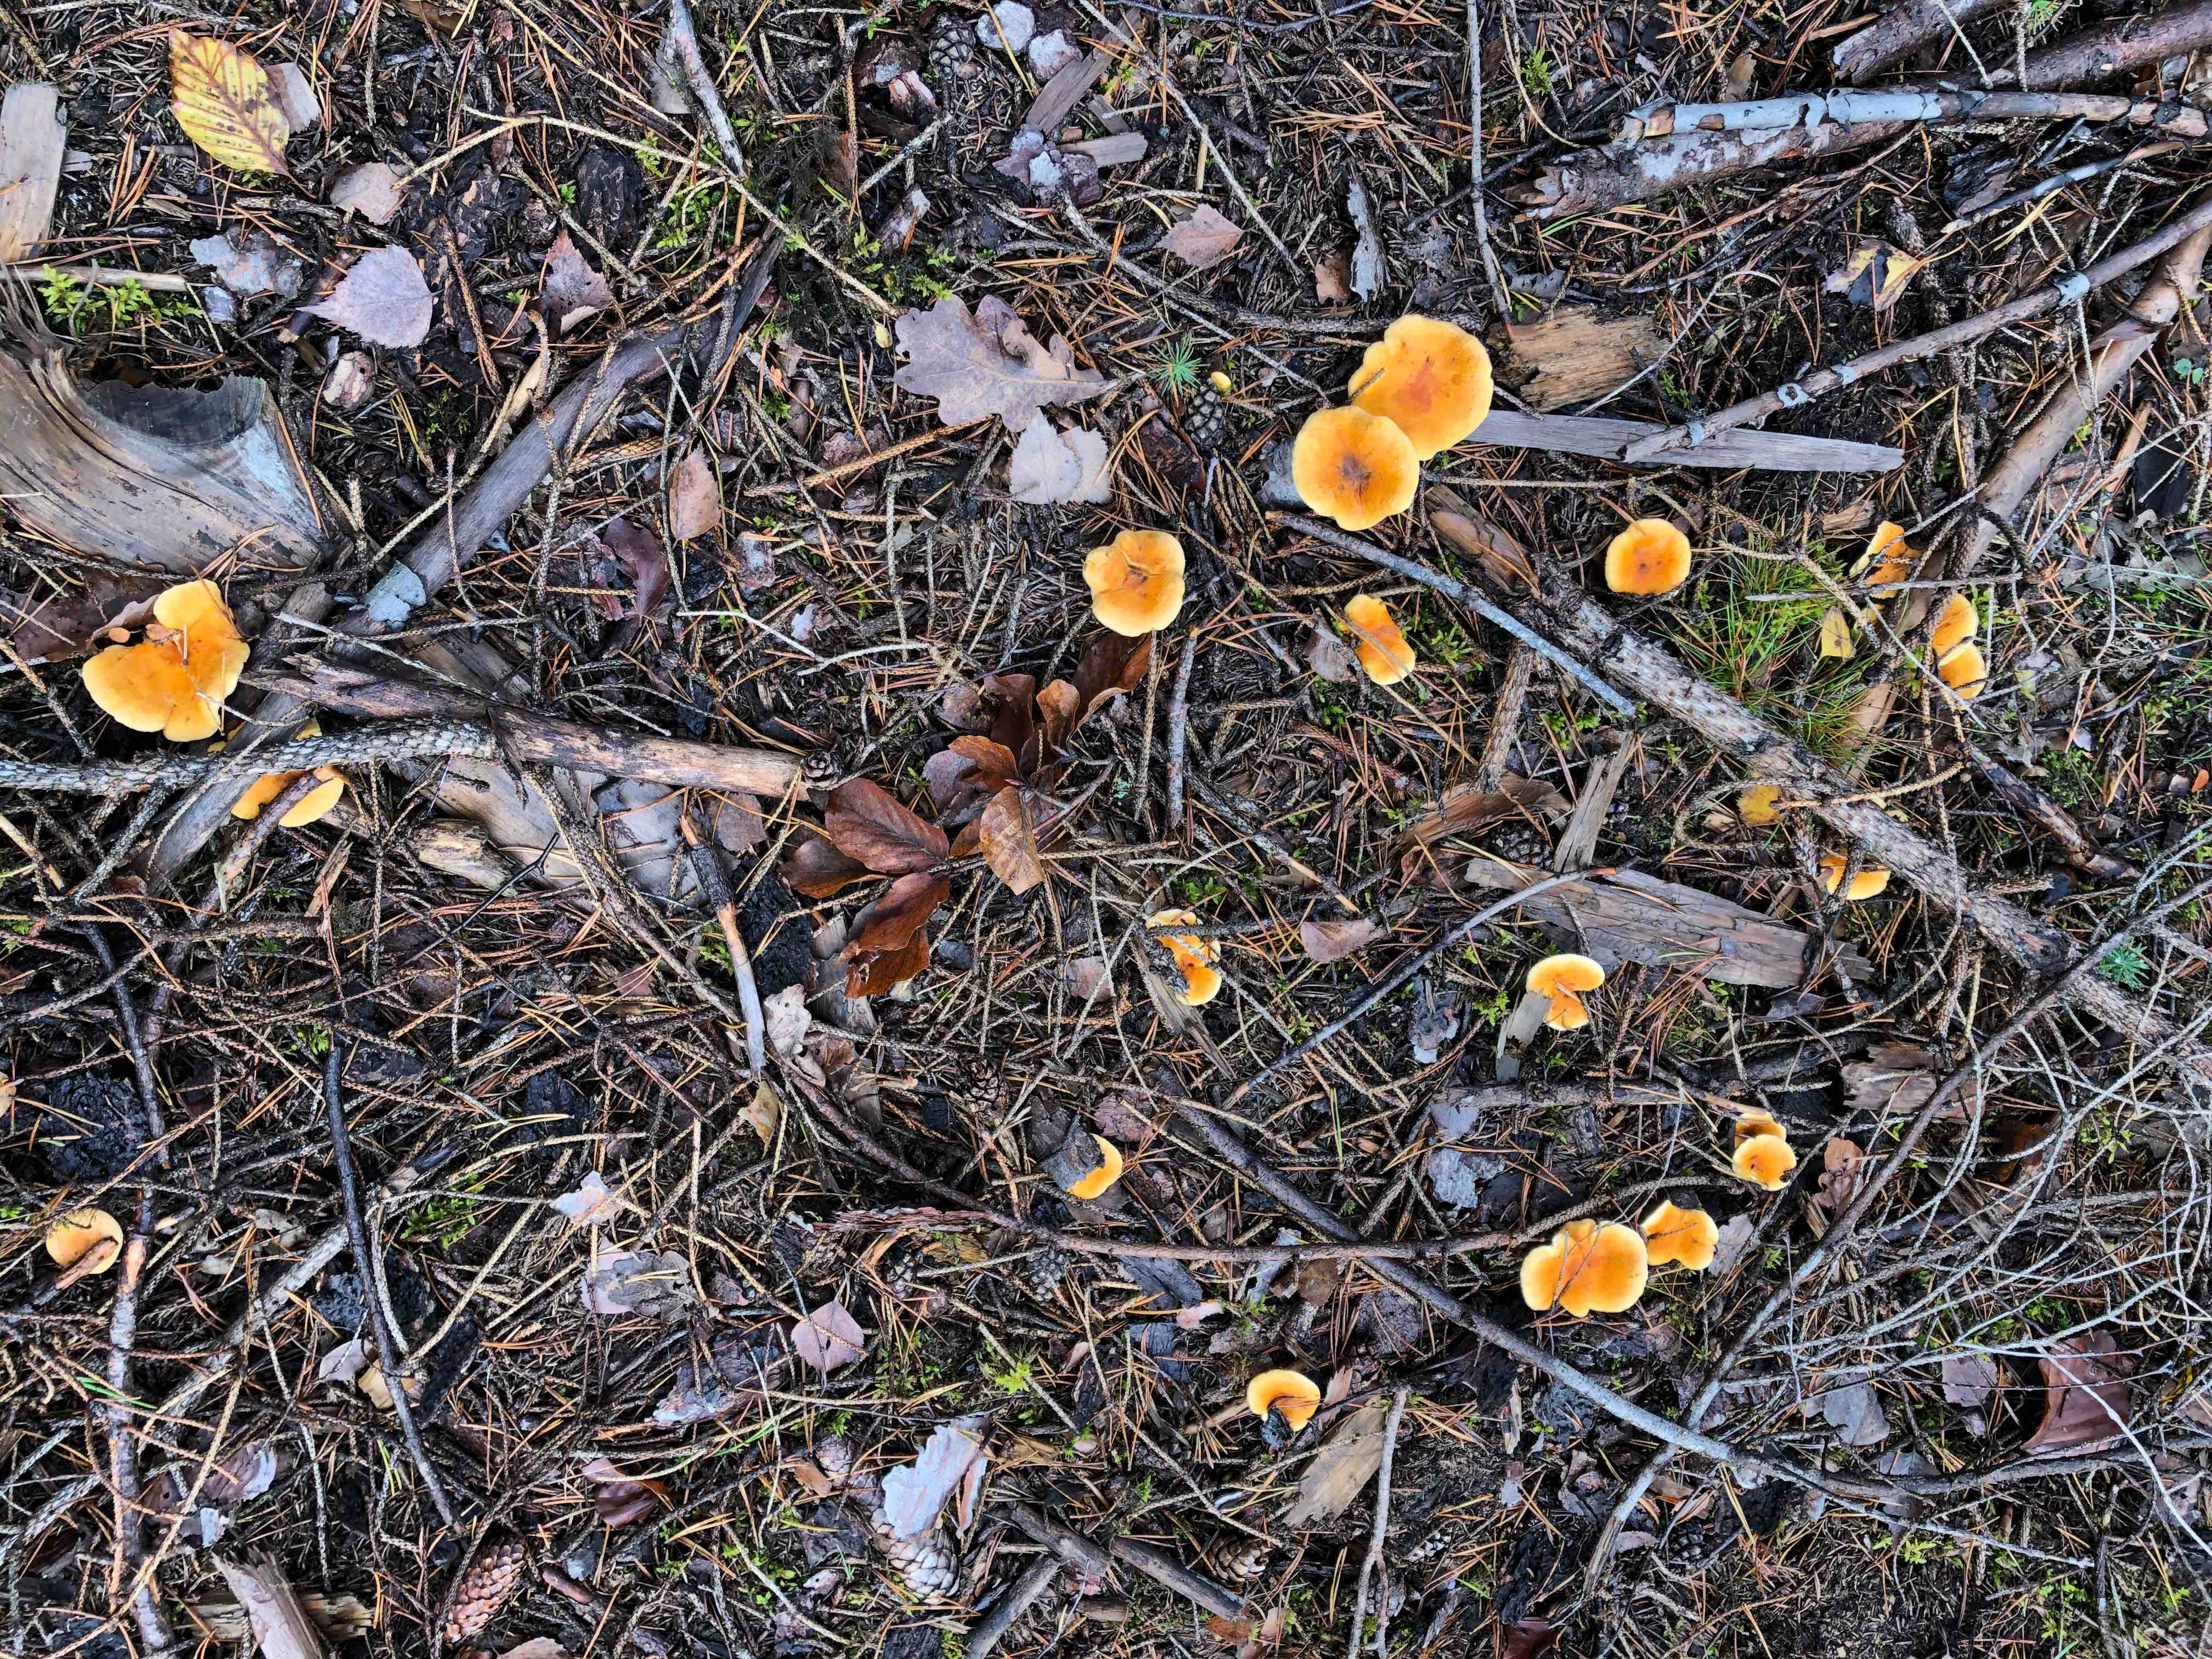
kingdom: Fungi
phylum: Basidiomycota
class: Agaricomycetes
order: Boletales
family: Hygrophoropsidaceae
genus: Hygrophoropsis
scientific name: Hygrophoropsis aurantiaca
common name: almindelig orangekantarel
